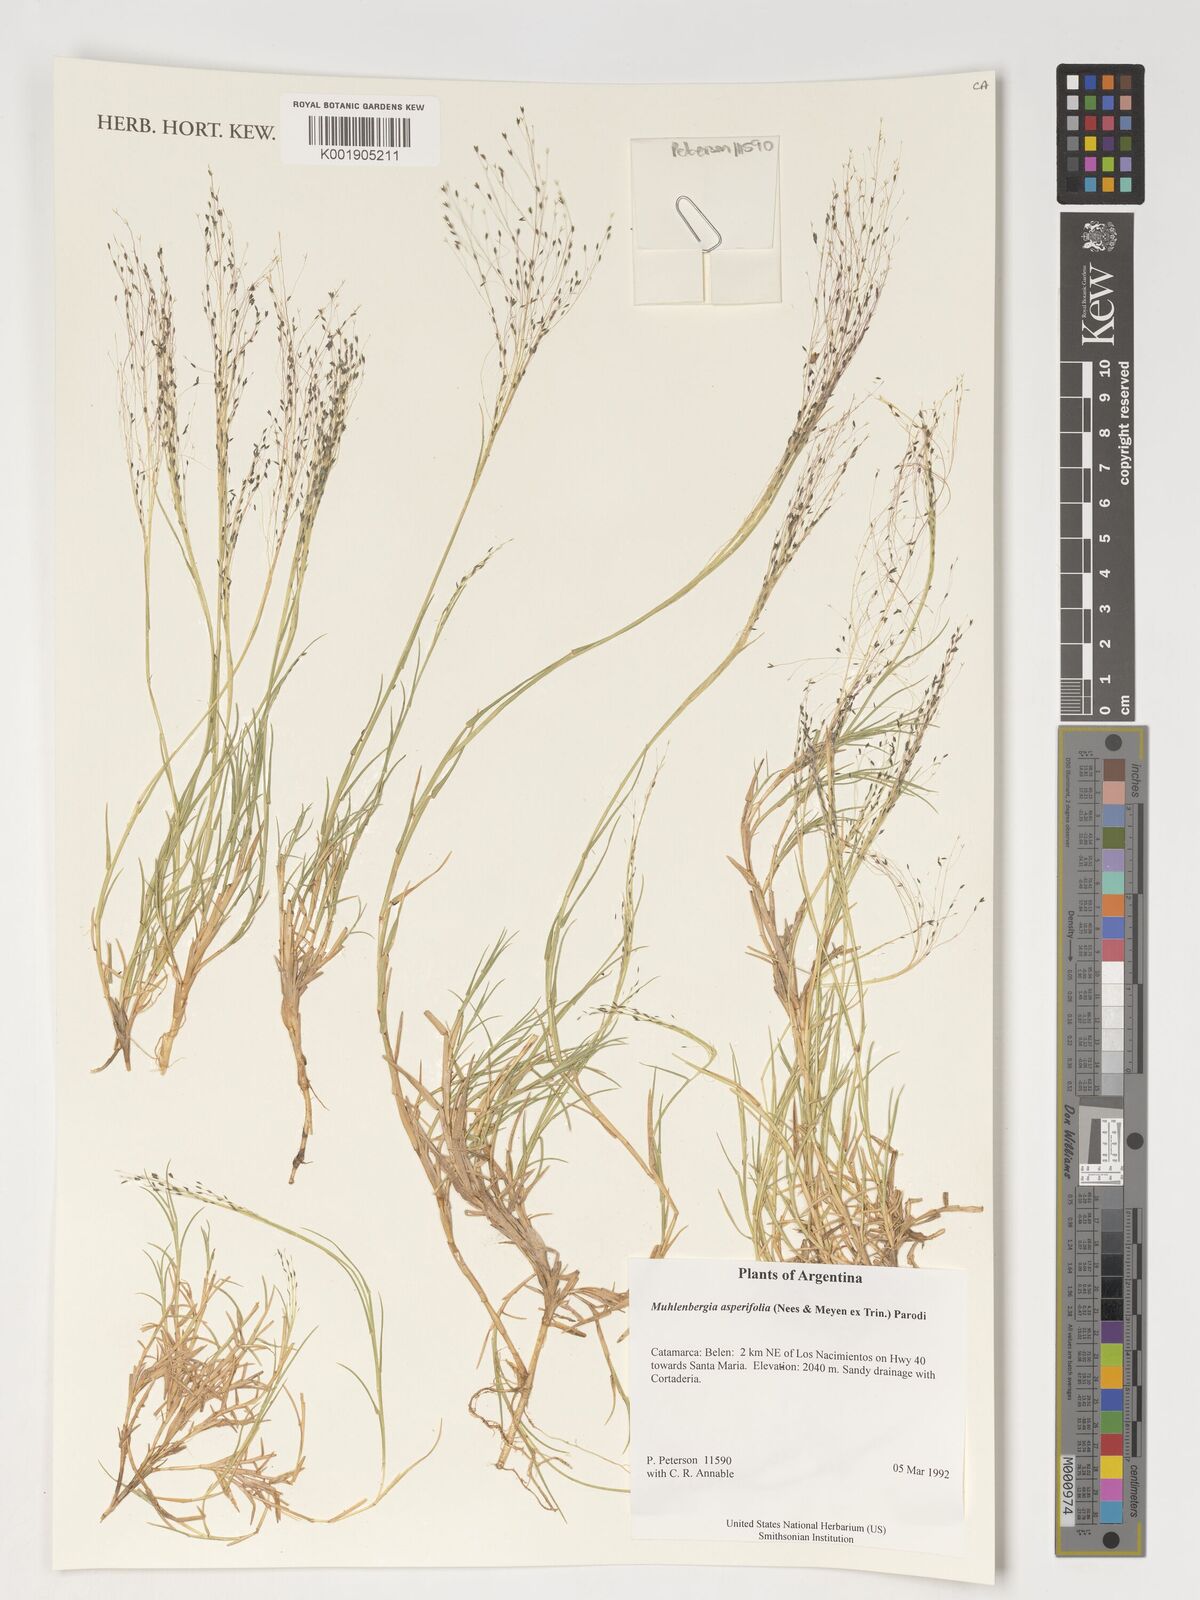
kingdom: Plantae
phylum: Tracheophyta
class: Liliopsida
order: Poales
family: Poaceae
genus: Muhlenbergia
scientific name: Muhlenbergia asperifolia
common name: Alkali muhly
